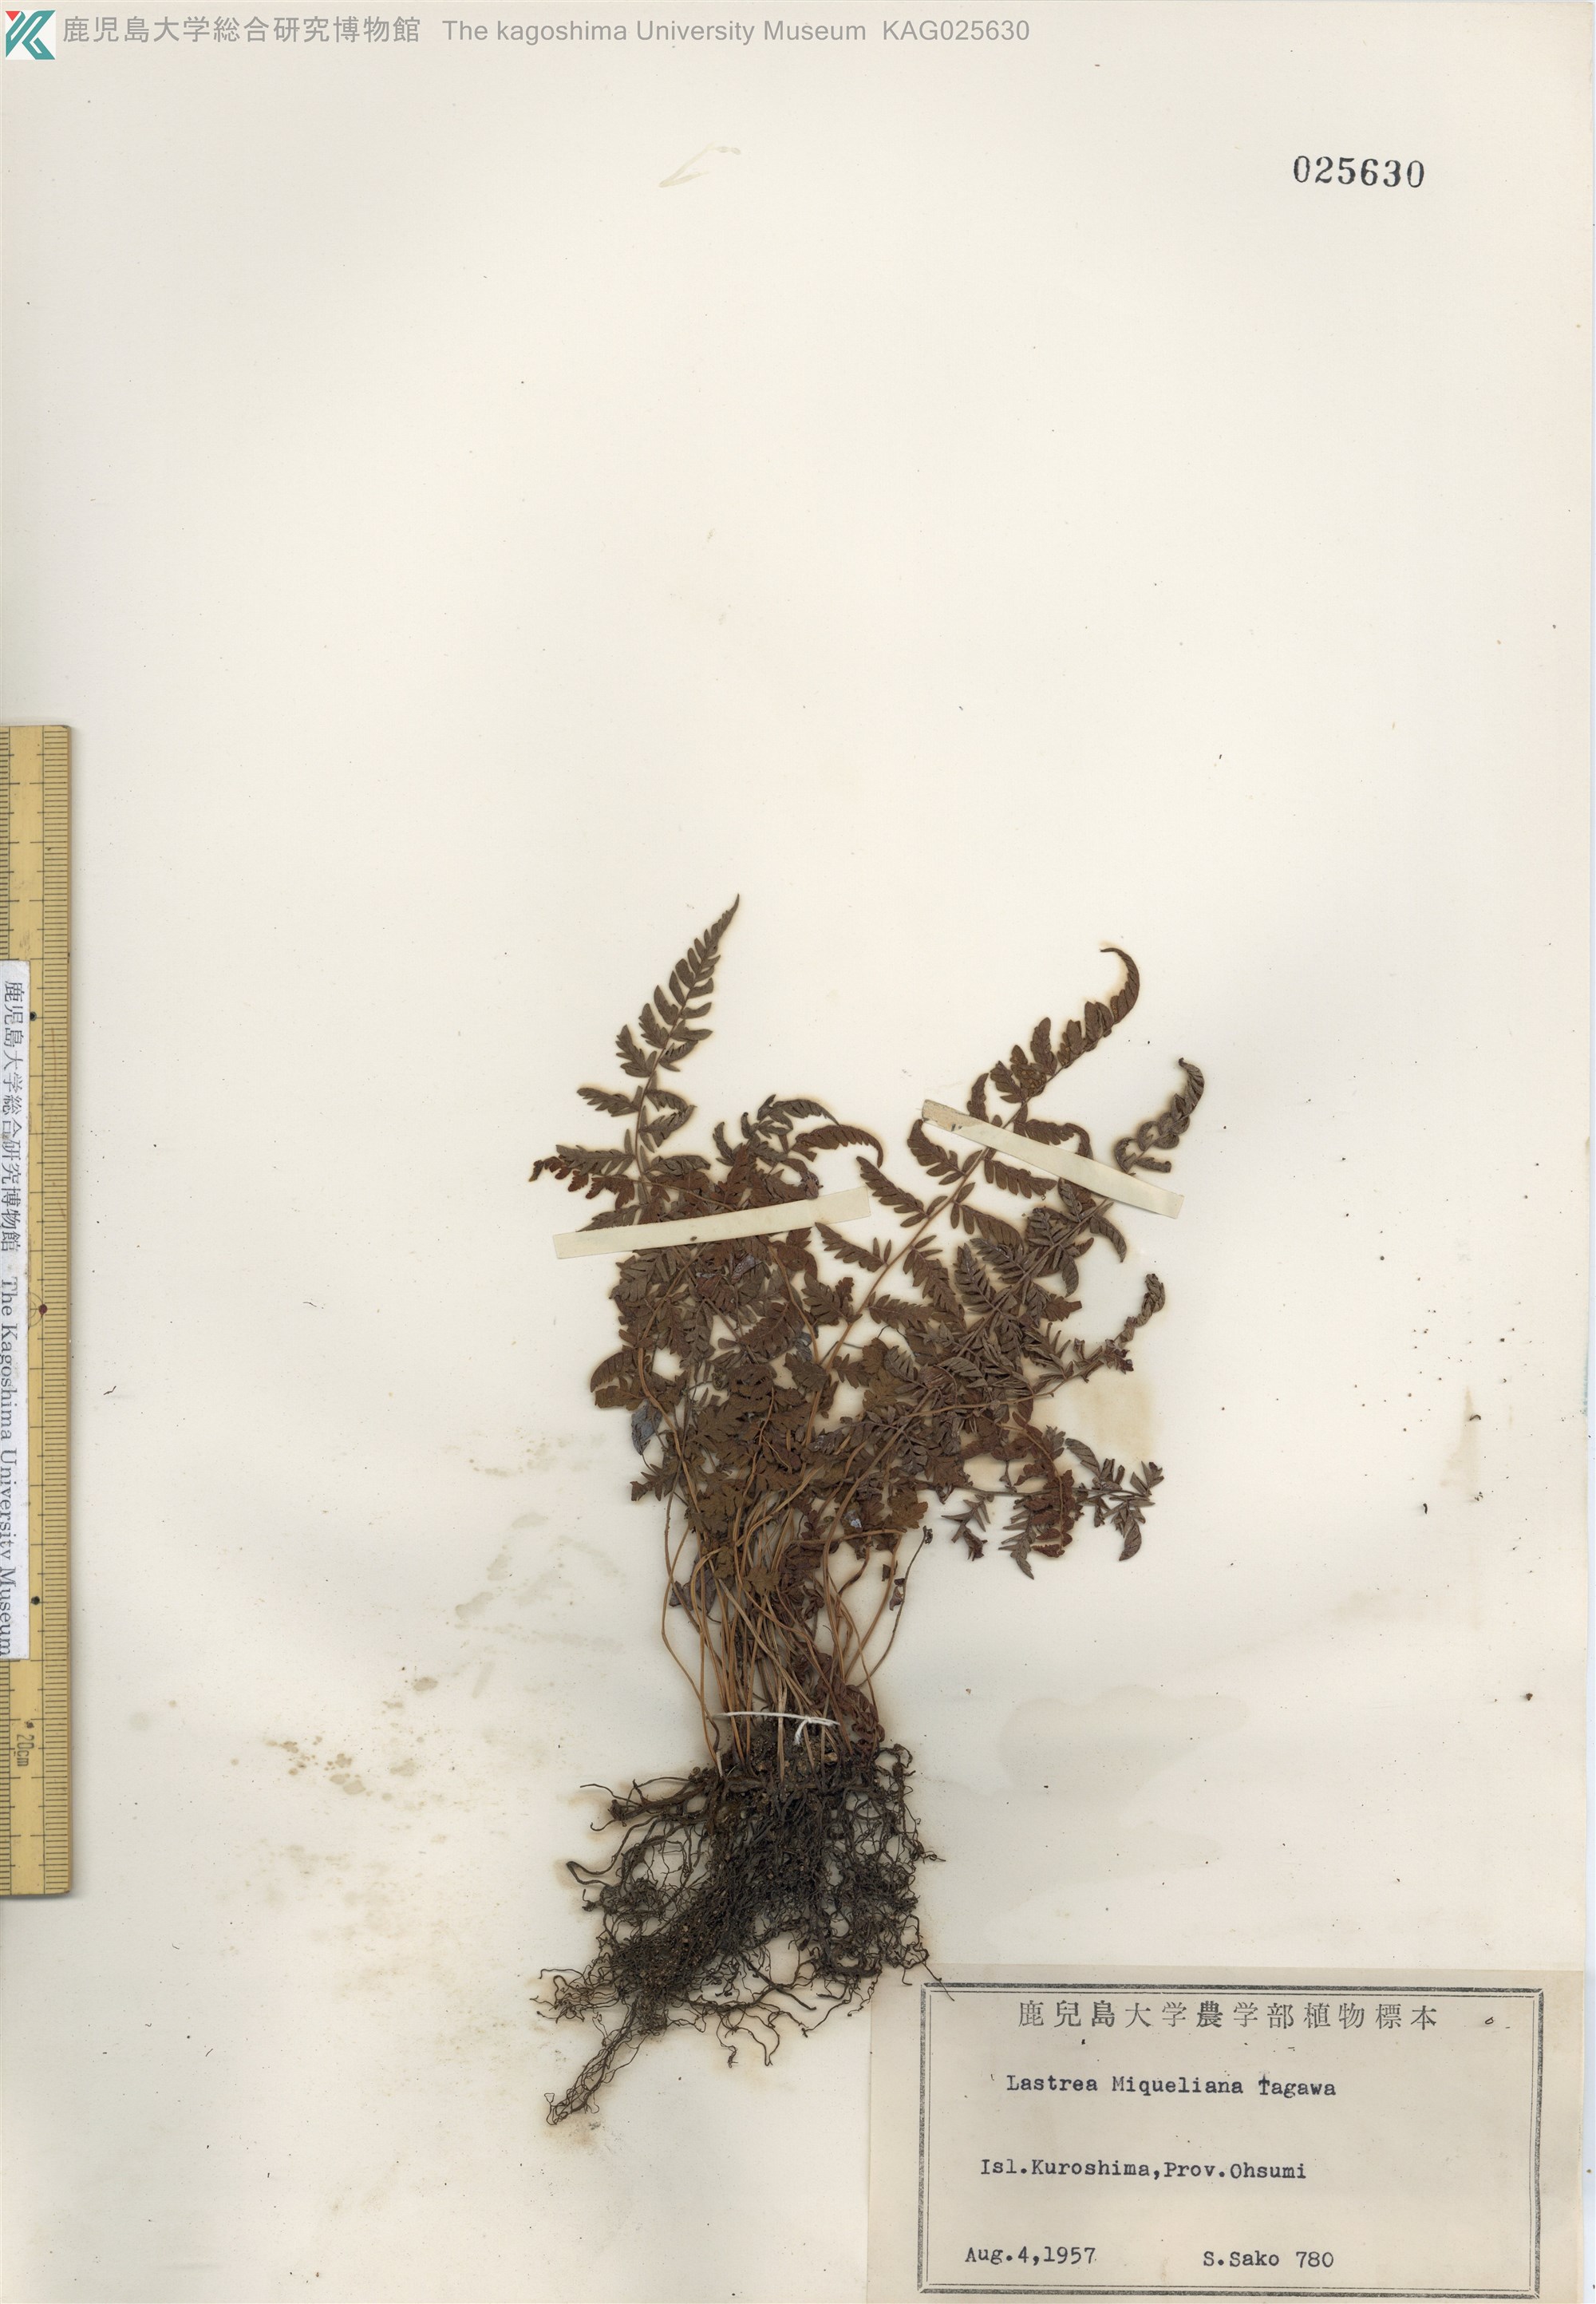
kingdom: Plantae
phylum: Tracheophyta
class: Polypodiopsida
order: Polypodiales
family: Thelypteridaceae
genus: Amauropelta
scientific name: Amauropelta angustifrons
